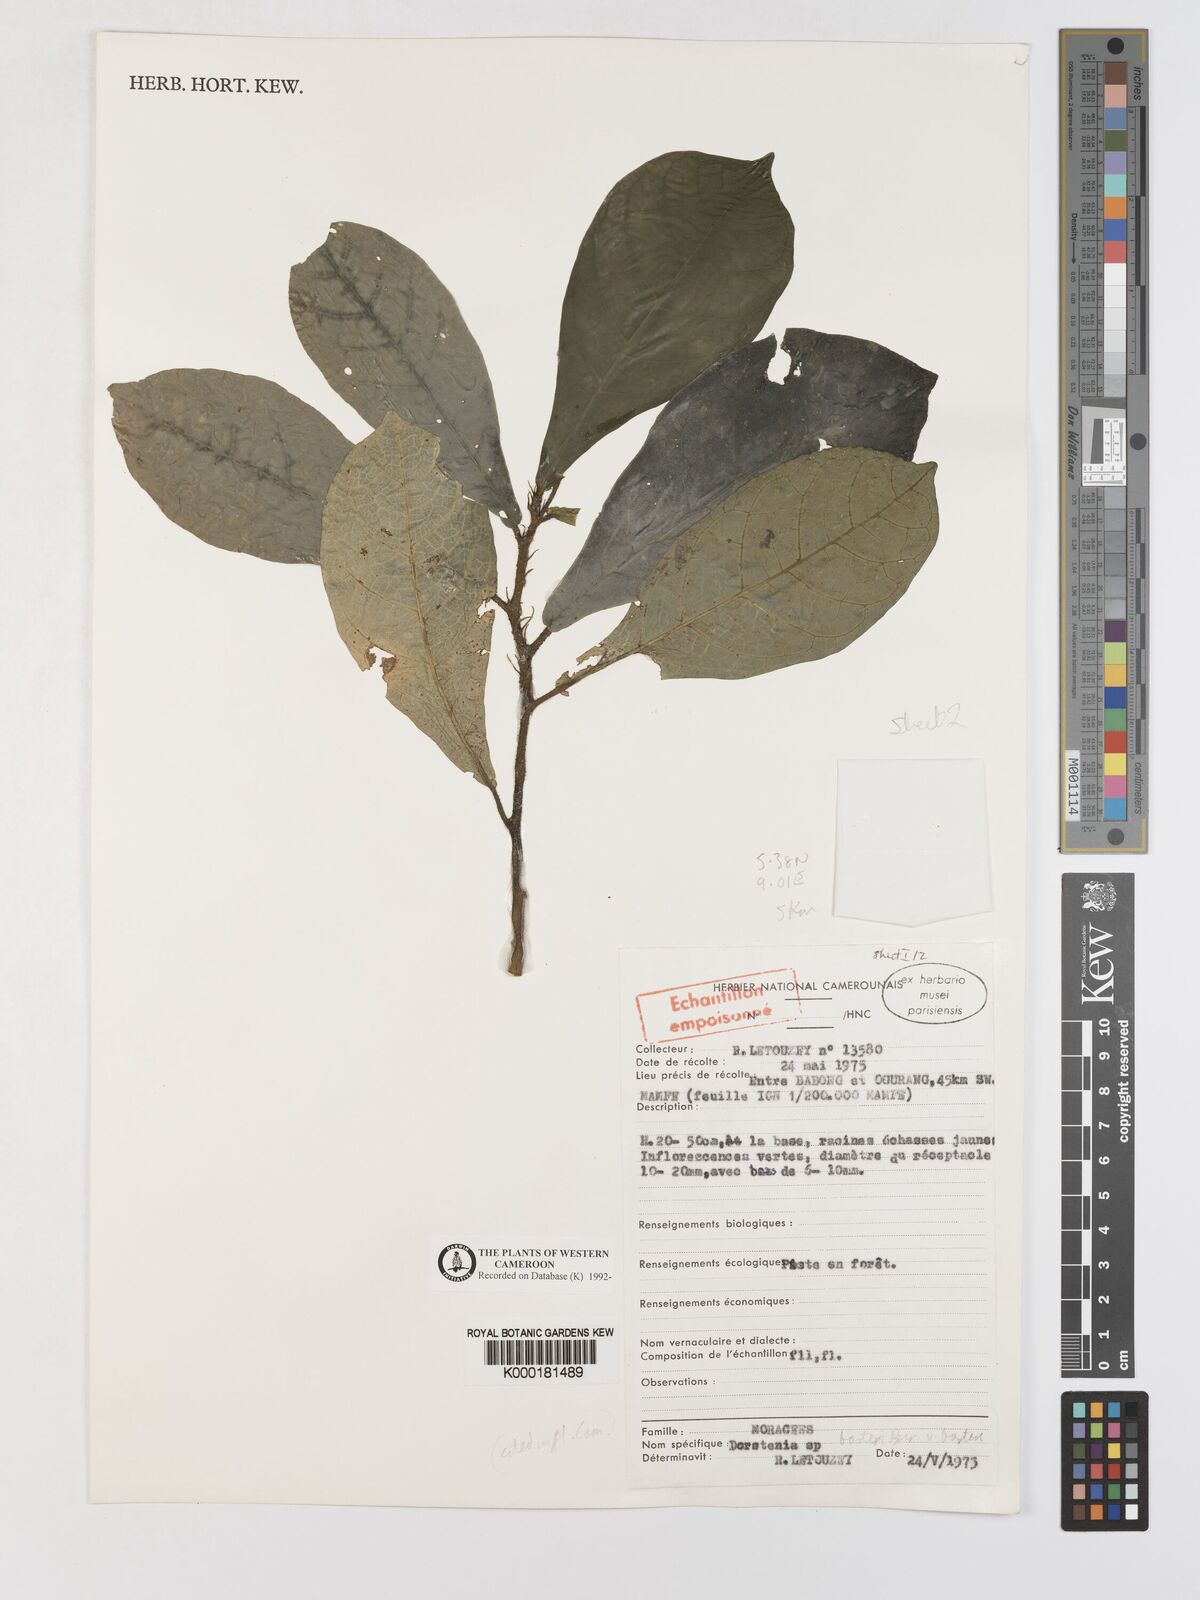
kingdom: Plantae
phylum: Tracheophyta
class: Magnoliopsida
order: Rosales
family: Moraceae
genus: Dorstenia
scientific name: Dorstenia barteri
